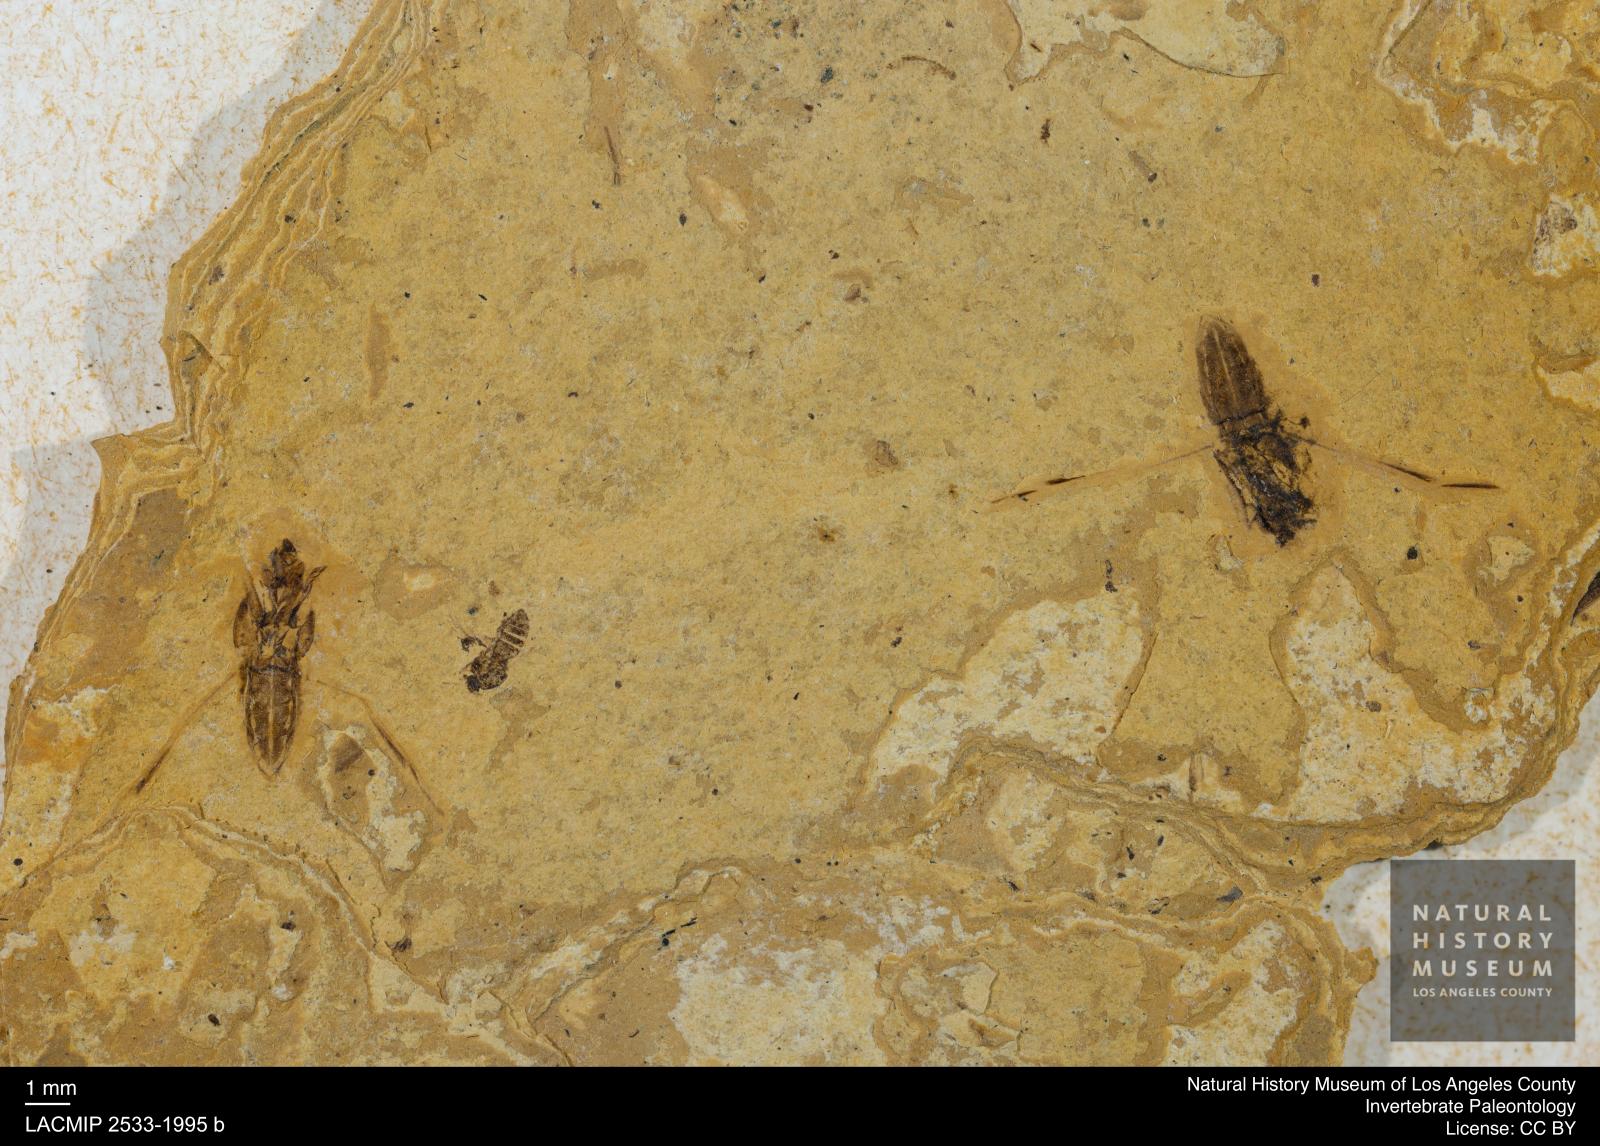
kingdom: Animalia
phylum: Arthropoda
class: Insecta
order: Hemiptera
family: Notonectidae
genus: Notonecta
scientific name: Notonecta
